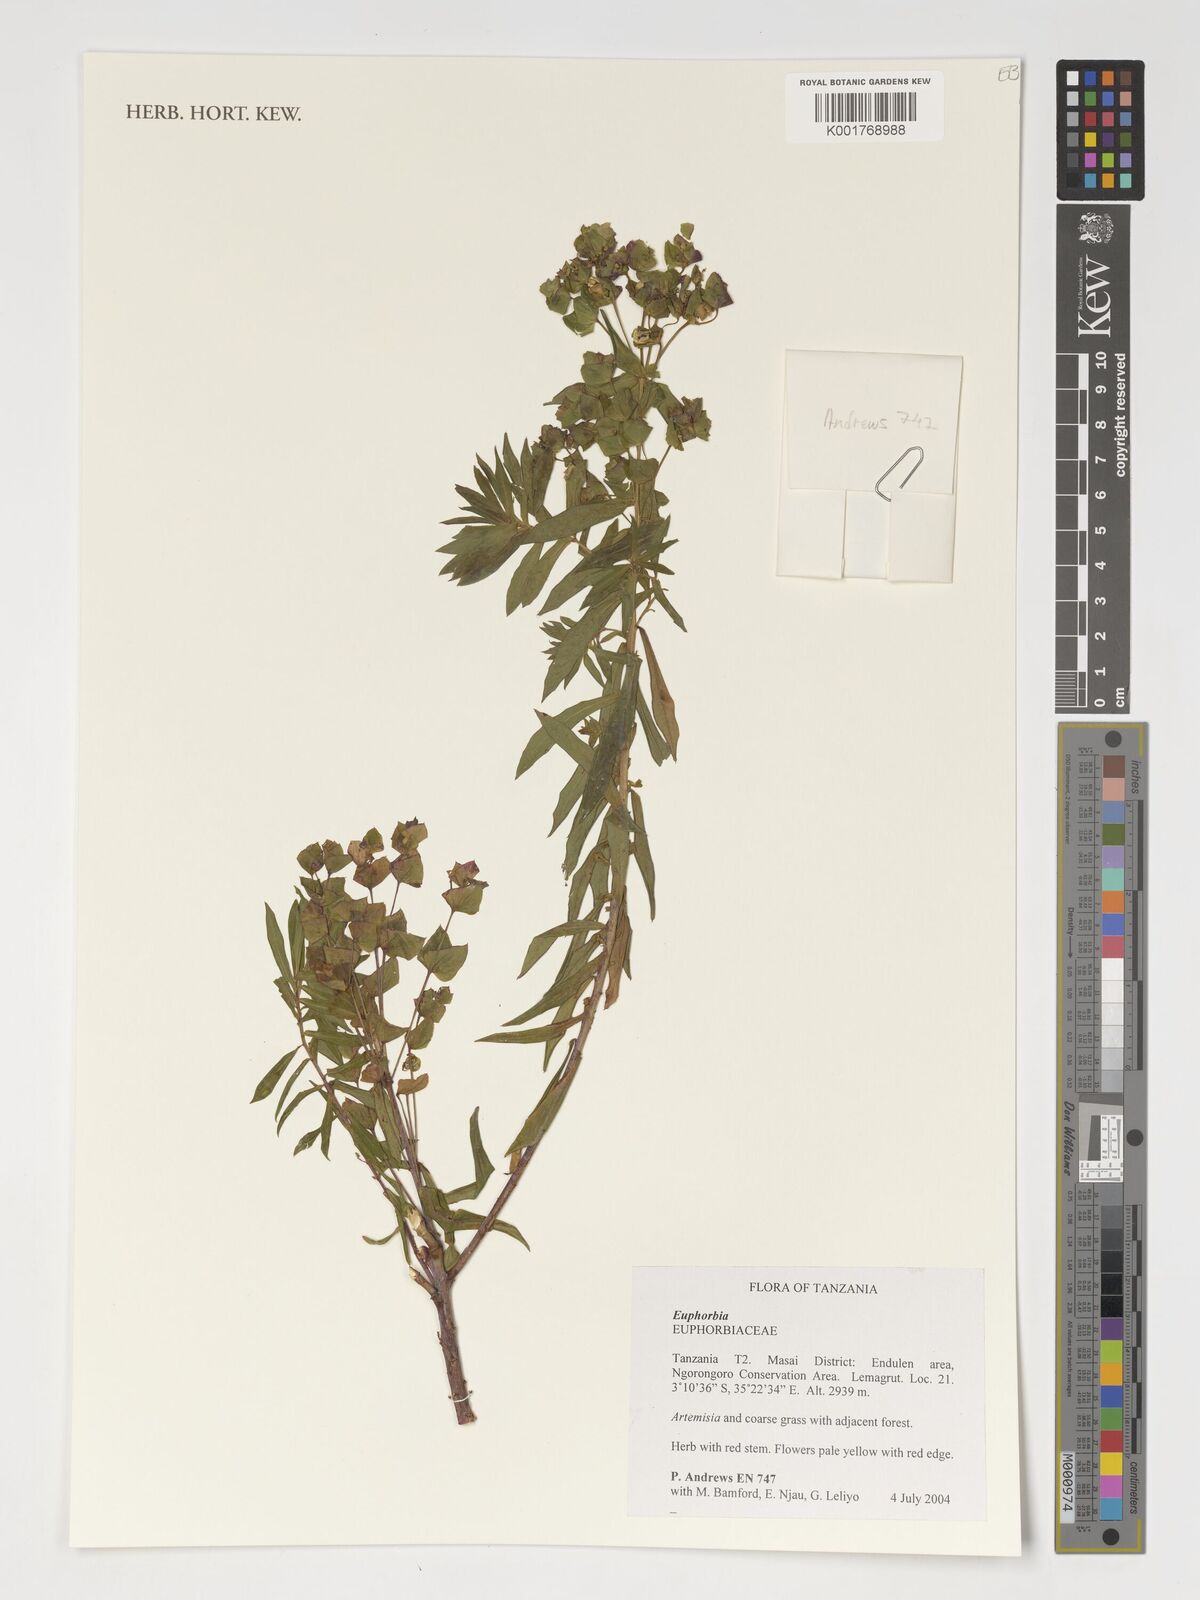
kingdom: Plantae
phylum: Tracheophyta
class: Magnoliopsida
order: Malpighiales
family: Euphorbiaceae
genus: Euphorbia
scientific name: Euphorbia
